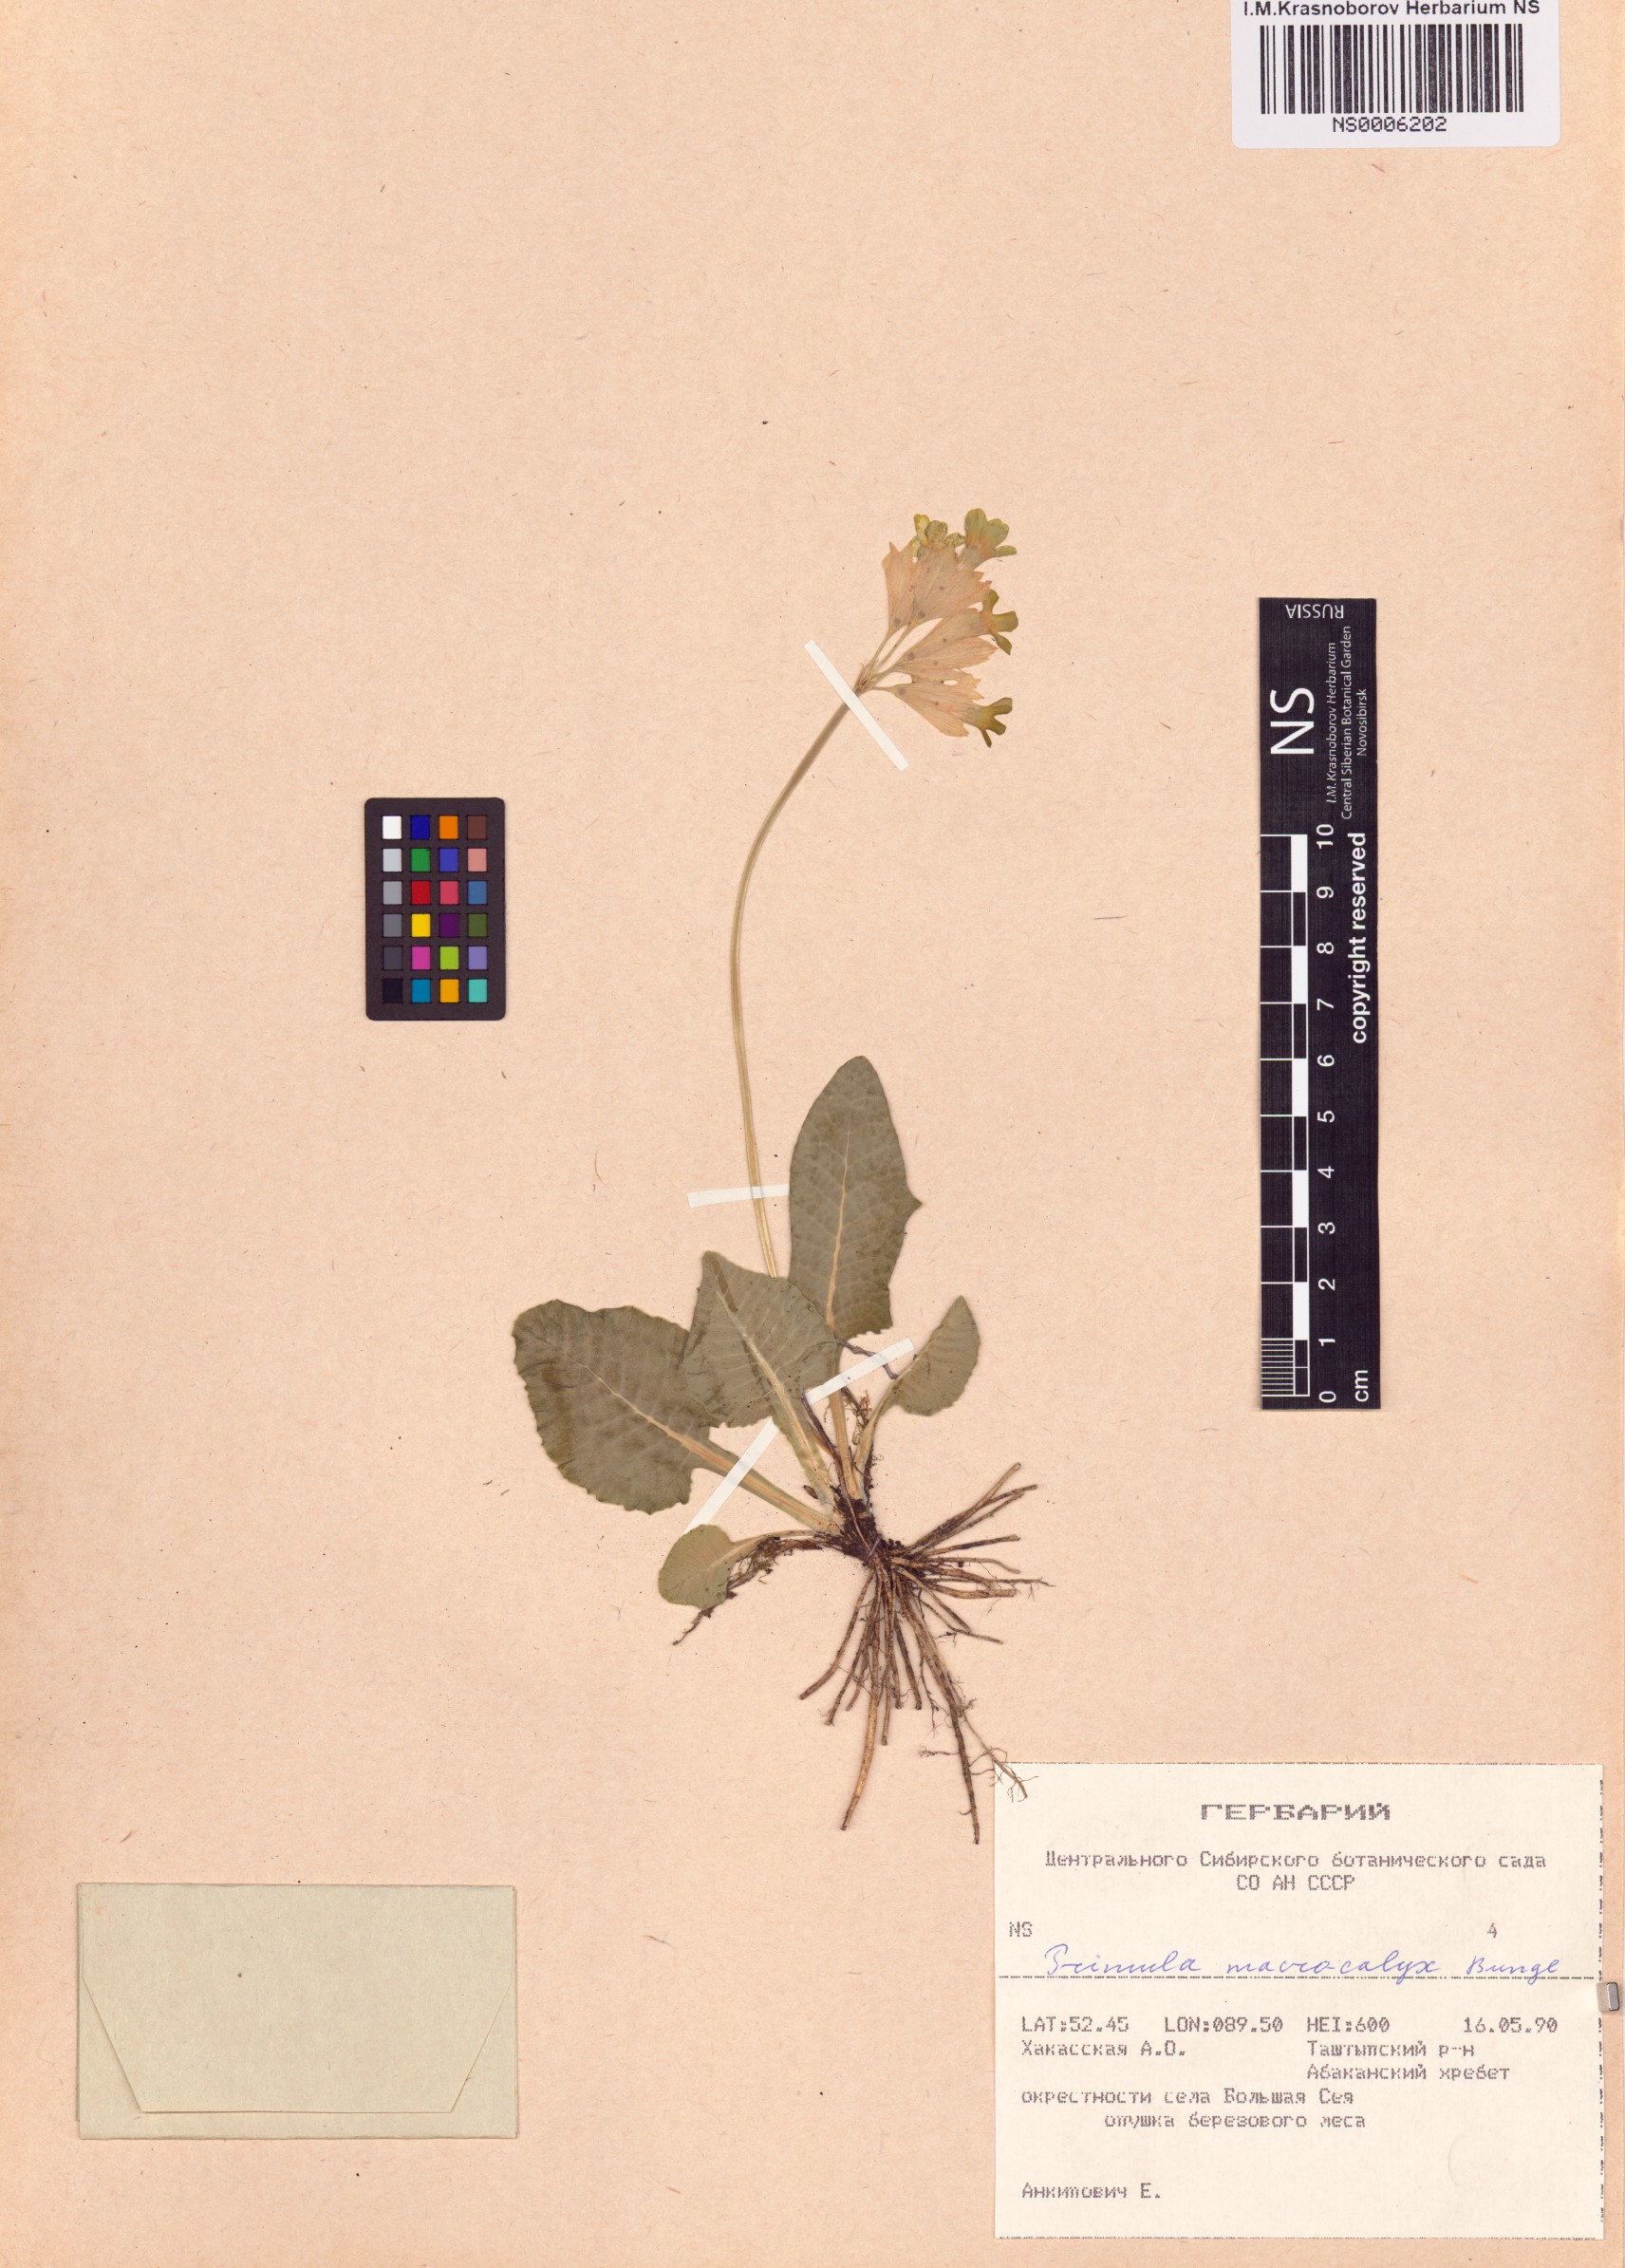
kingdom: Plantae
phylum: Tracheophyta
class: Magnoliopsida
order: Ericales
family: Primulaceae
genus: Primula
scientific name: Primula veris
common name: Cowslip
